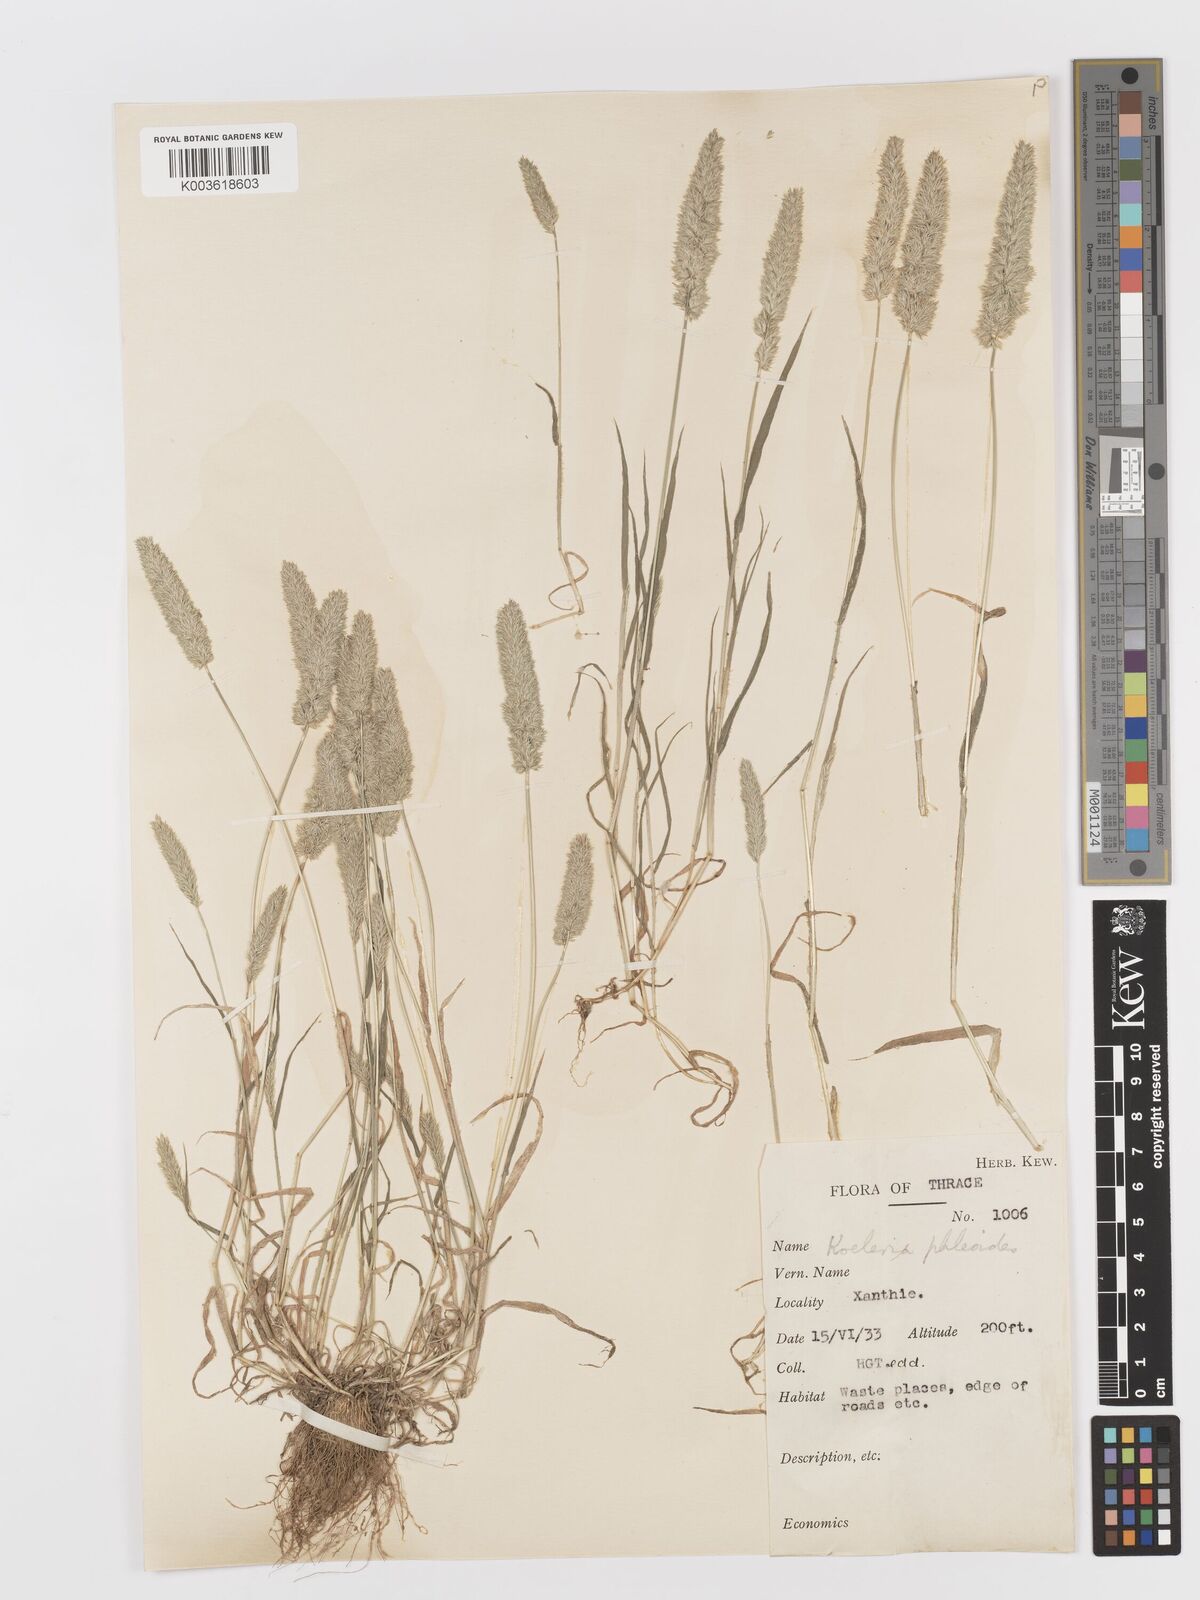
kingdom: Plantae
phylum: Tracheophyta
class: Liliopsida
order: Poales
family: Poaceae
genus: Rostraria
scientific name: Rostraria cristata
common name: Mediterranean hair-grass
